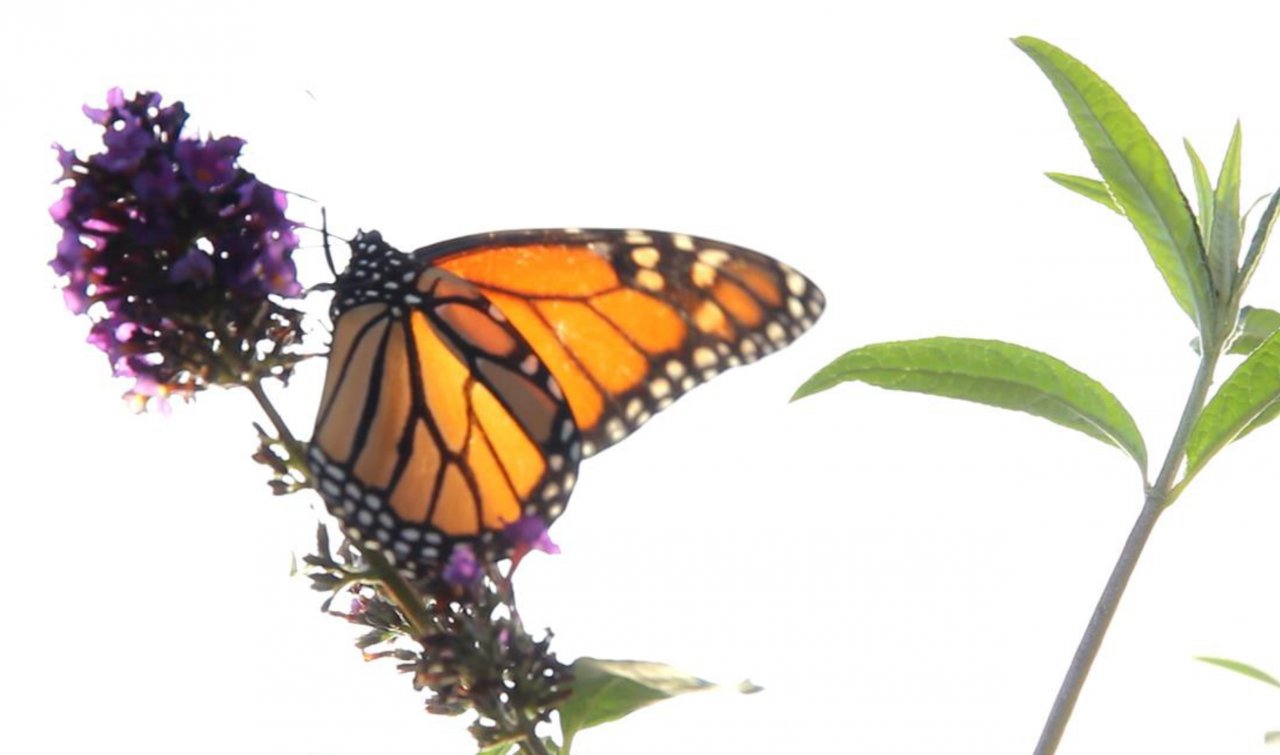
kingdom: Animalia
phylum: Arthropoda
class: Insecta
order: Lepidoptera
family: Nymphalidae
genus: Danaus
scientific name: Danaus plexippus
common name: Monarch
